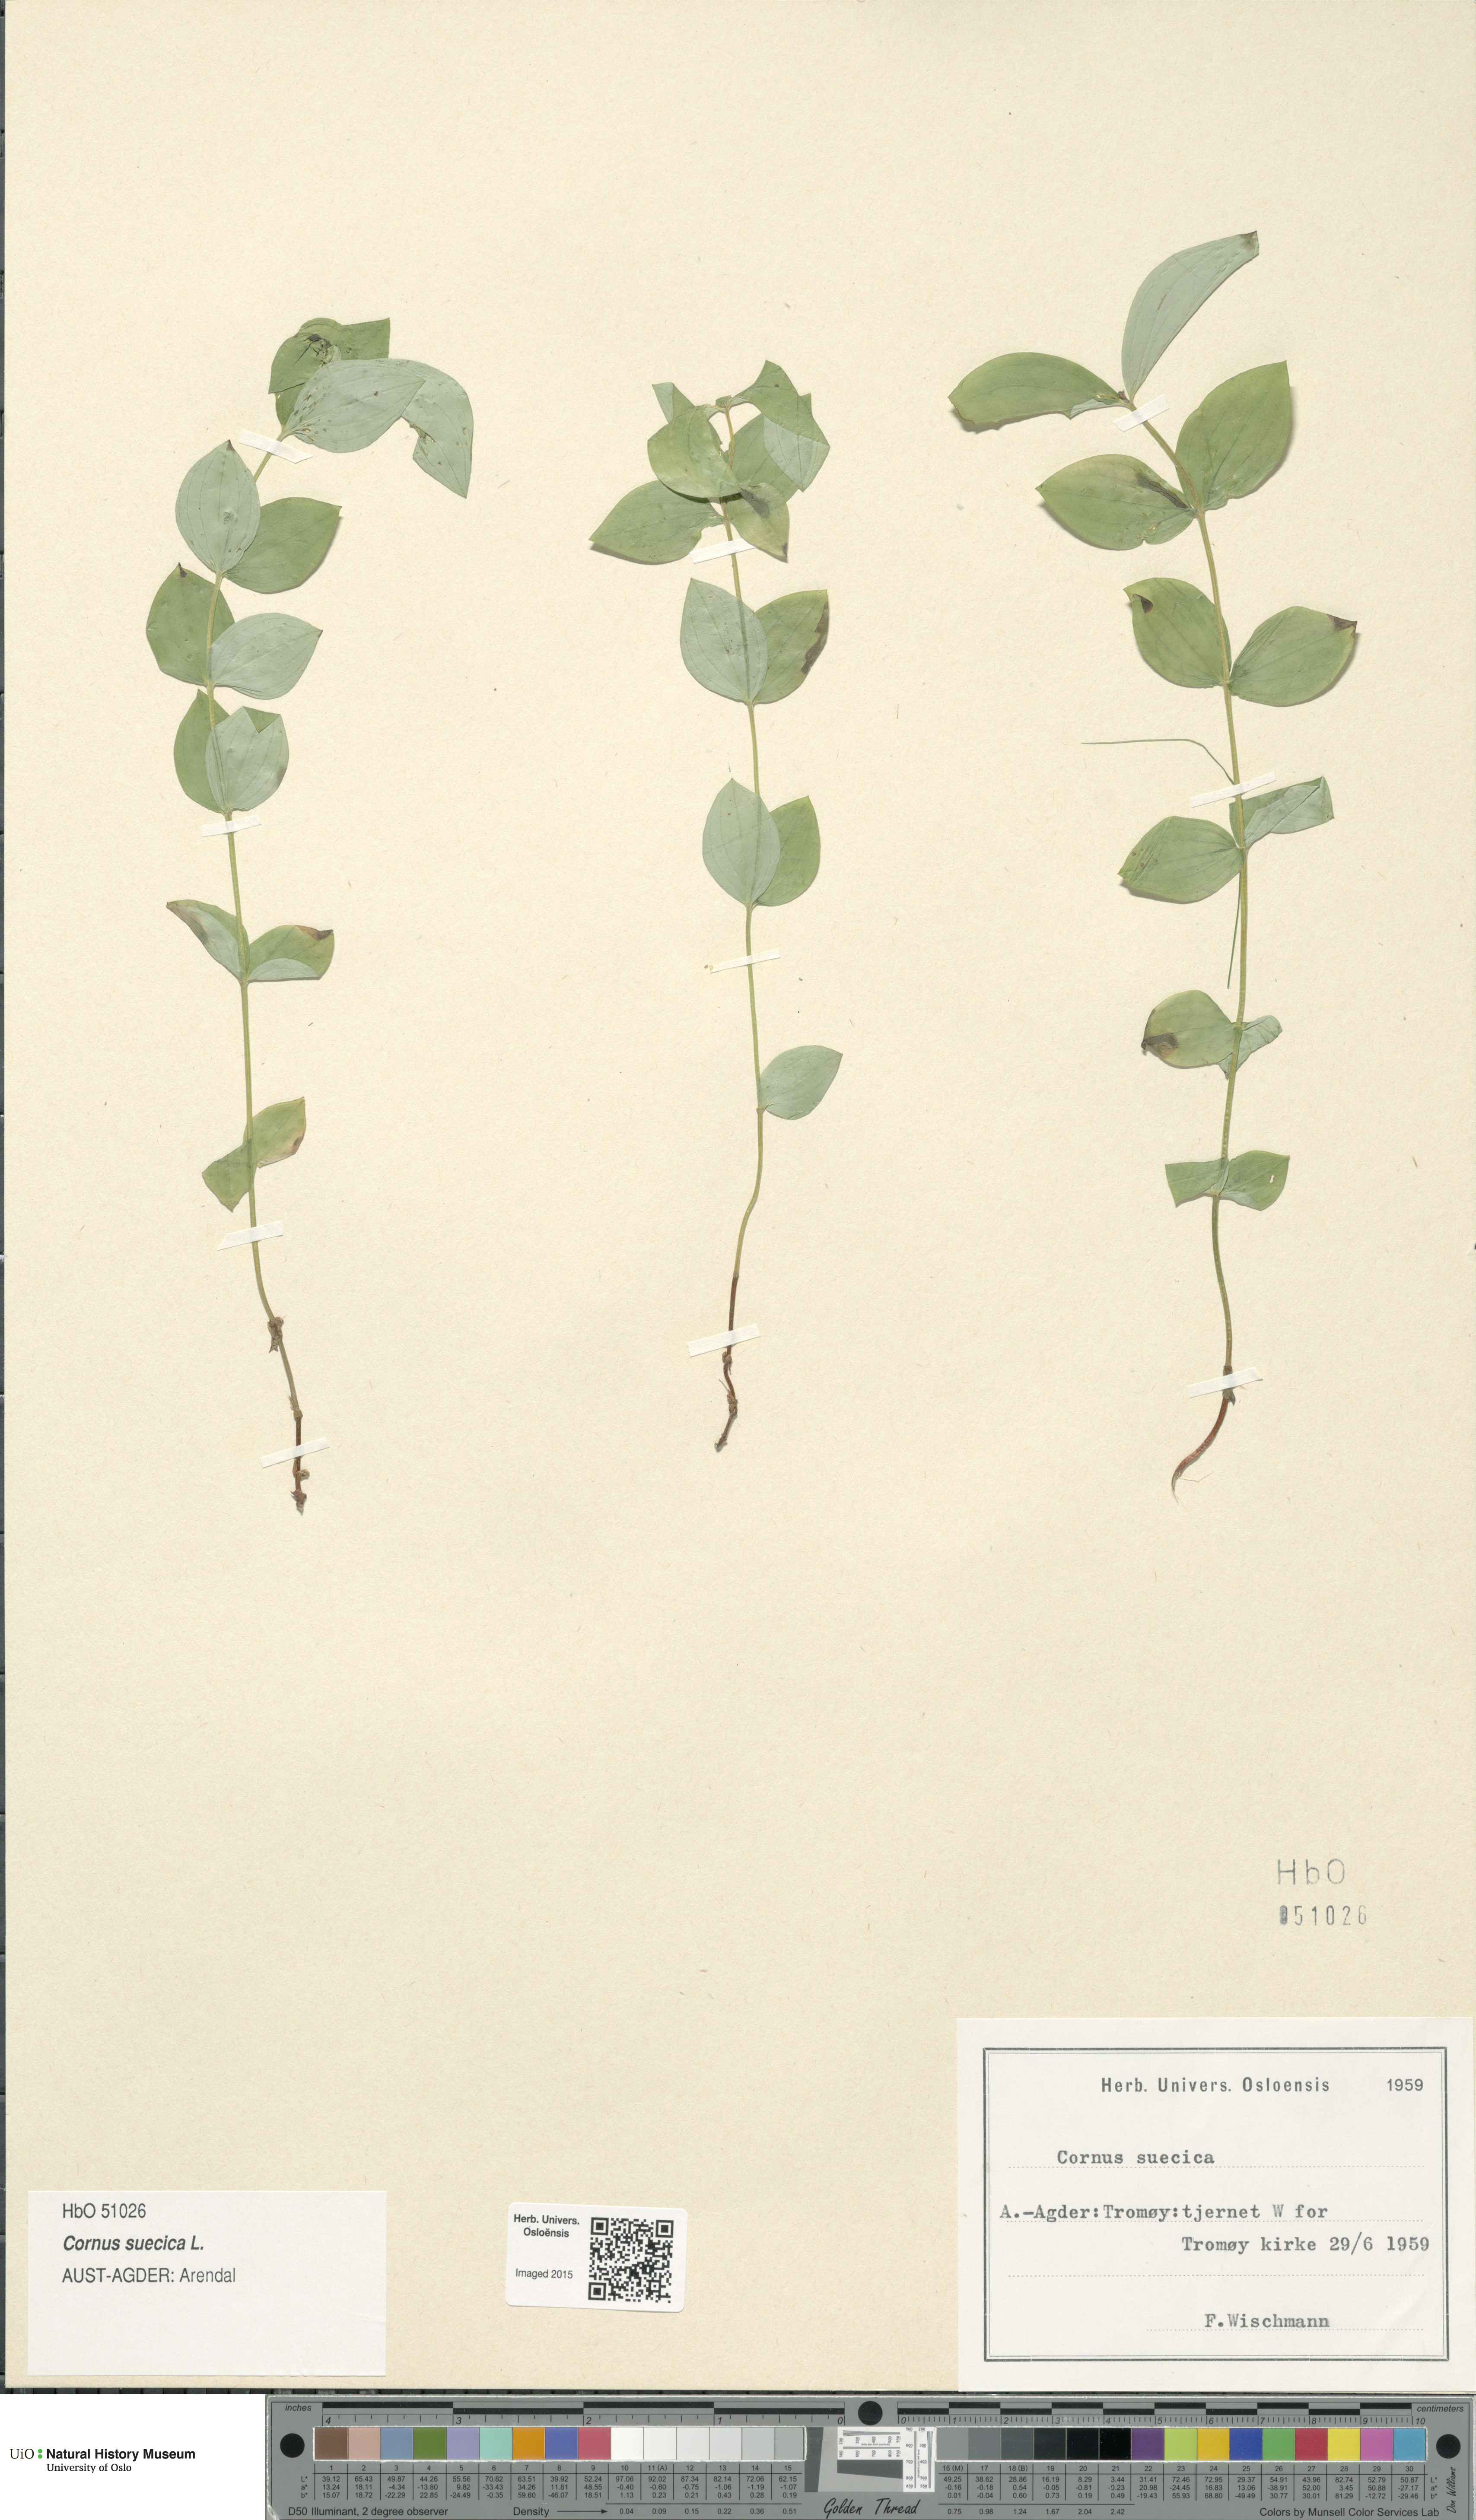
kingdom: Plantae
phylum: Tracheophyta
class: Magnoliopsida
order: Cornales
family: Cornaceae
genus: Cornus
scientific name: Cornus suecica
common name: Dwarf cornel
